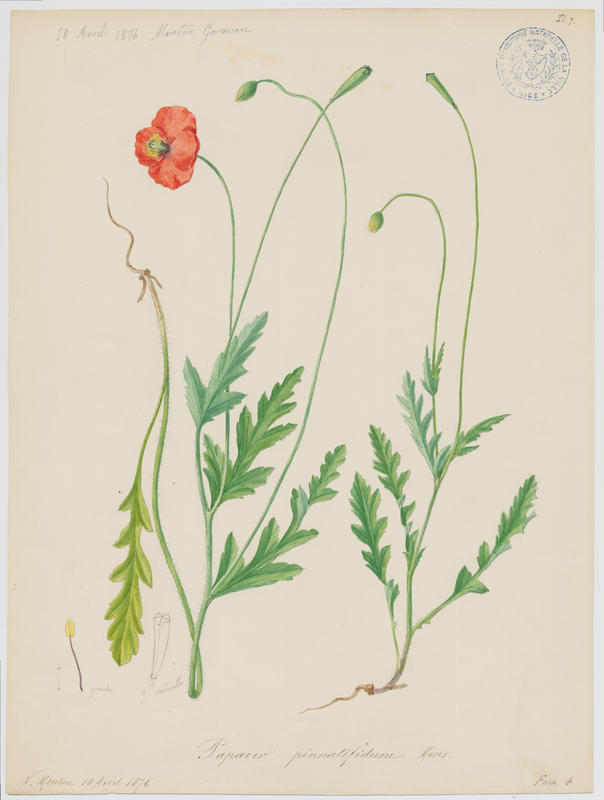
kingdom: Plantae
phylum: Tracheophyta
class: Magnoliopsida
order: Ranunculales
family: Papaveraceae
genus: Papaver
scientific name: Papaver pinnatifidum
